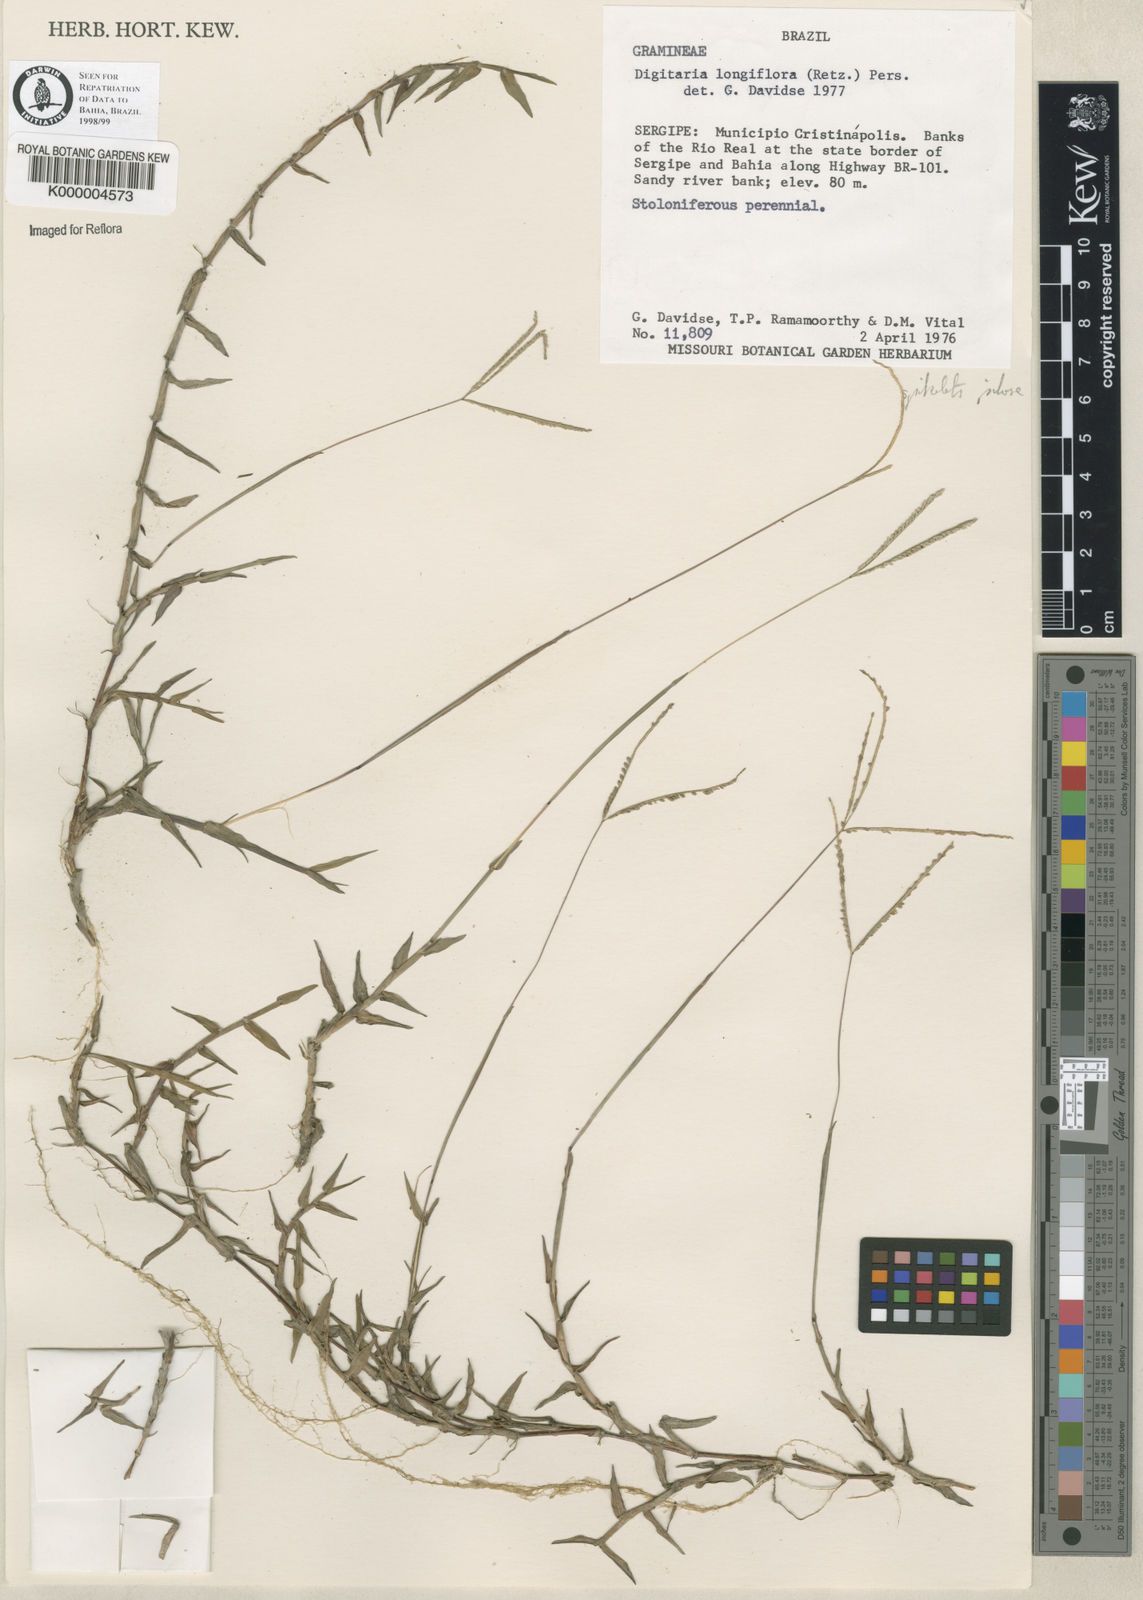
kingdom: Plantae
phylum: Tracheophyta
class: Liliopsida
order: Poales
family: Poaceae
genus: Digitaria
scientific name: Digitaria fuscescens
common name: Yellow crabgrass
